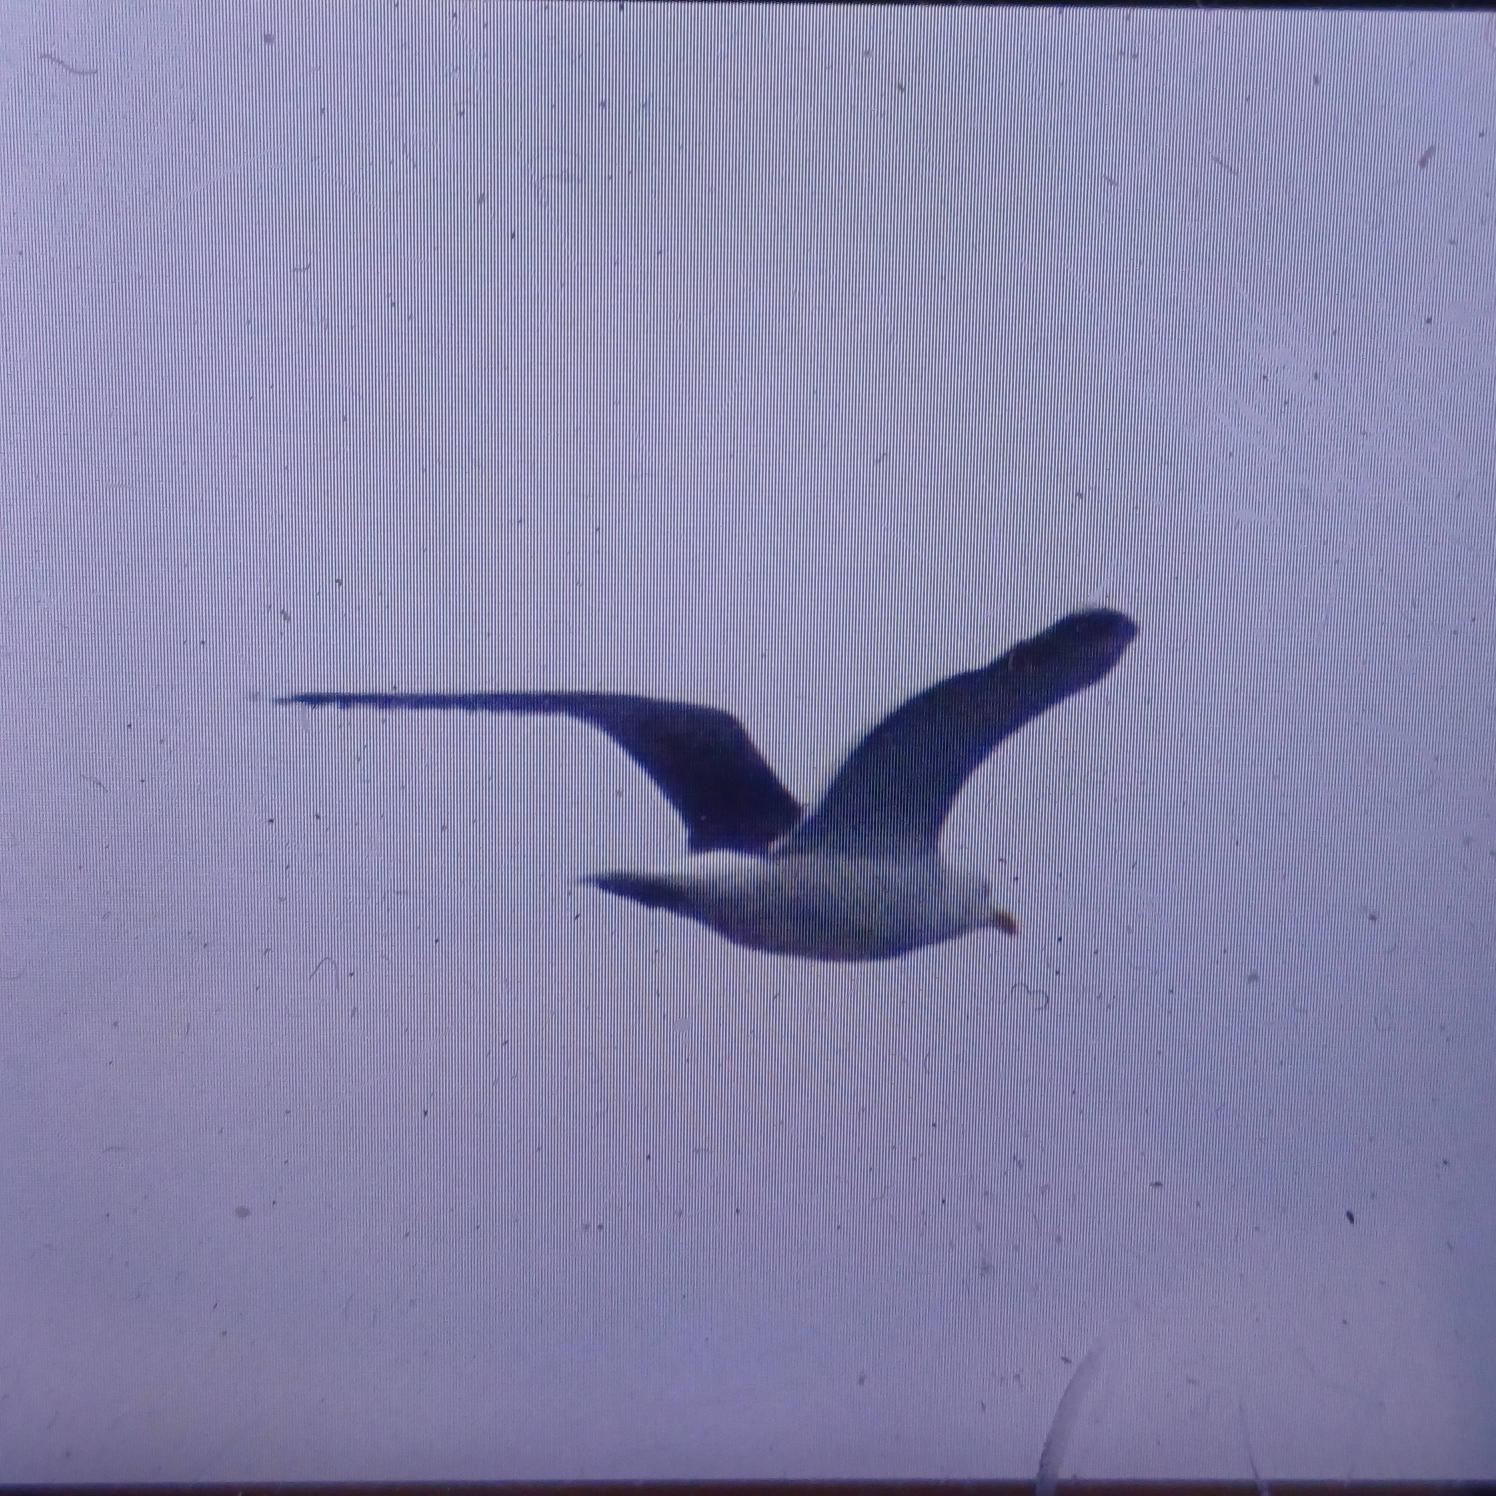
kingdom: Animalia
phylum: Chordata
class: Aves
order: Charadriiformes
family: Laridae
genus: Larus
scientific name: Larus marinus
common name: Svartbag
